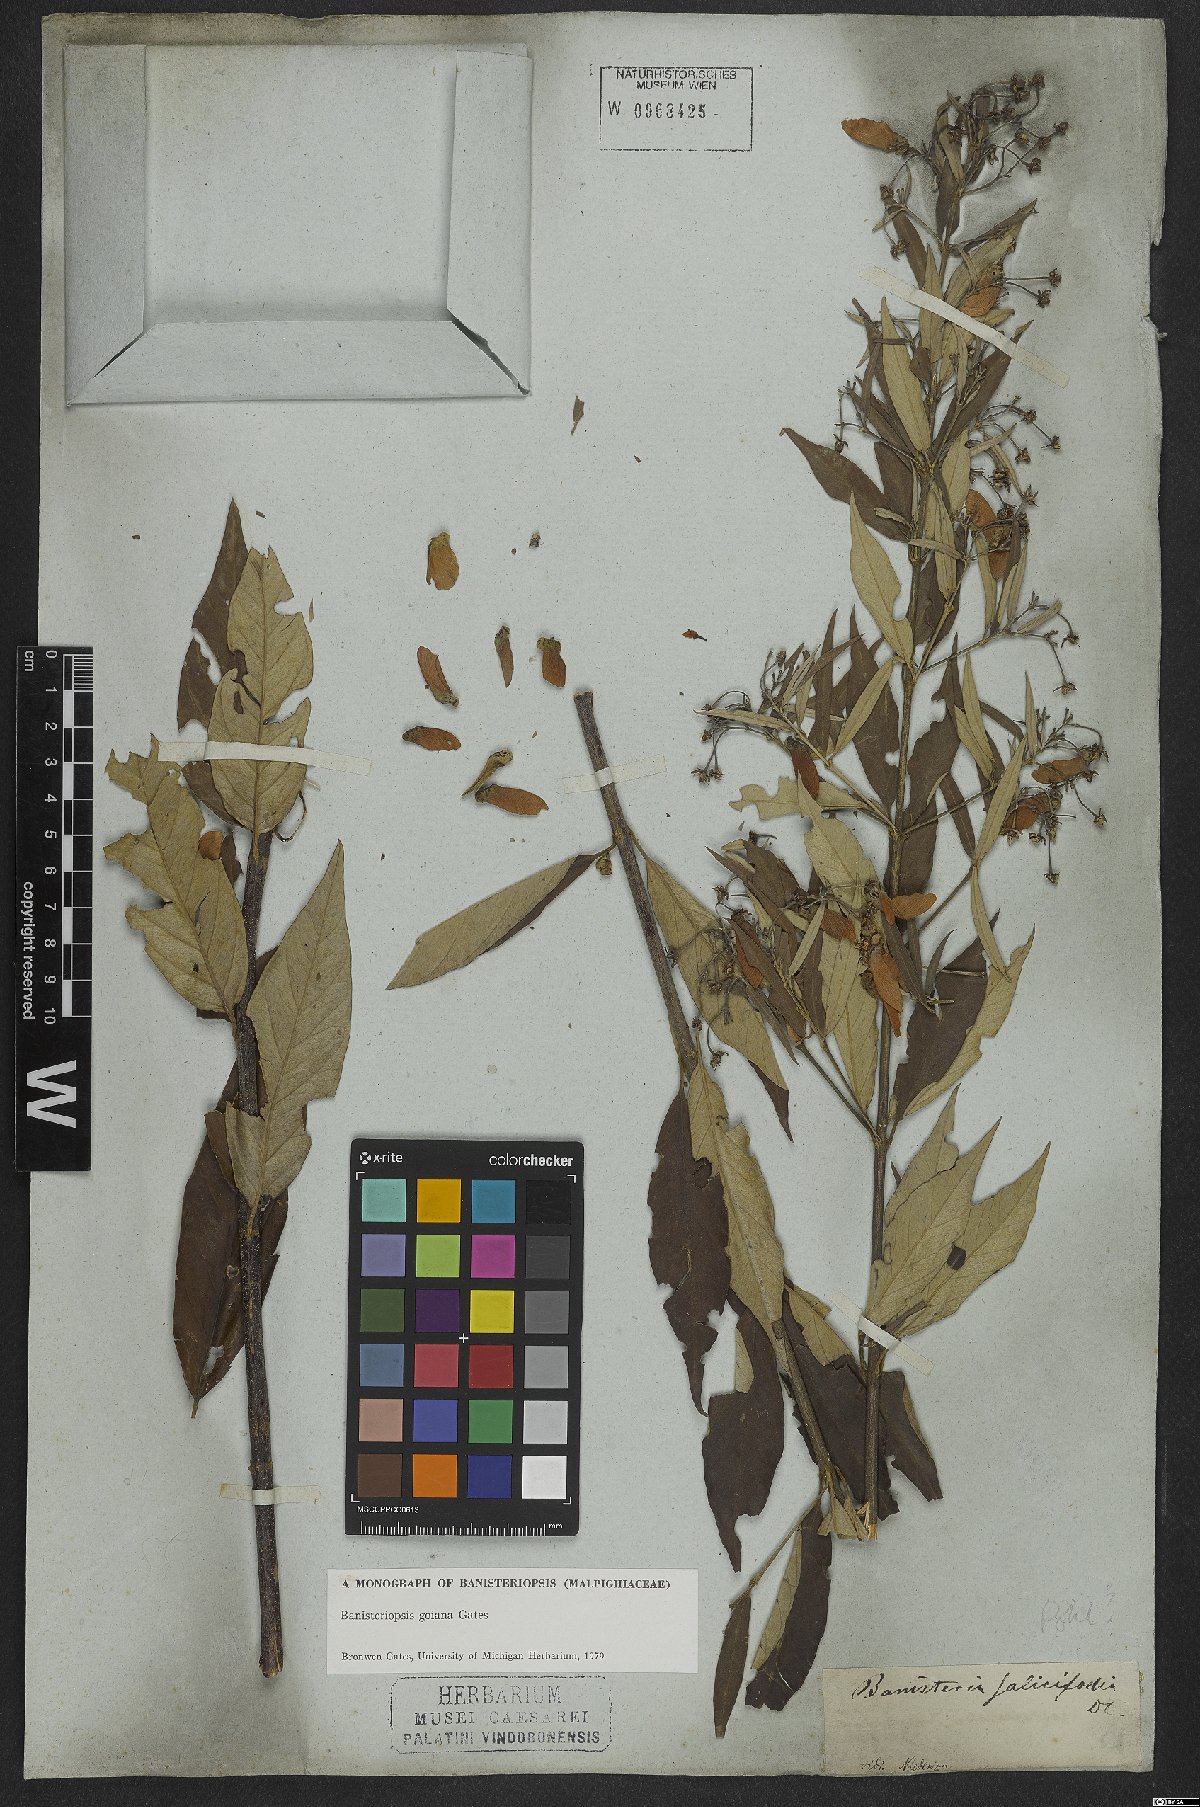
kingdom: Plantae
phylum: Tracheophyta
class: Magnoliopsida
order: Malpighiales
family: Malpighiaceae
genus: Banisteriopsis
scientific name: Banisteriopsis goiana
